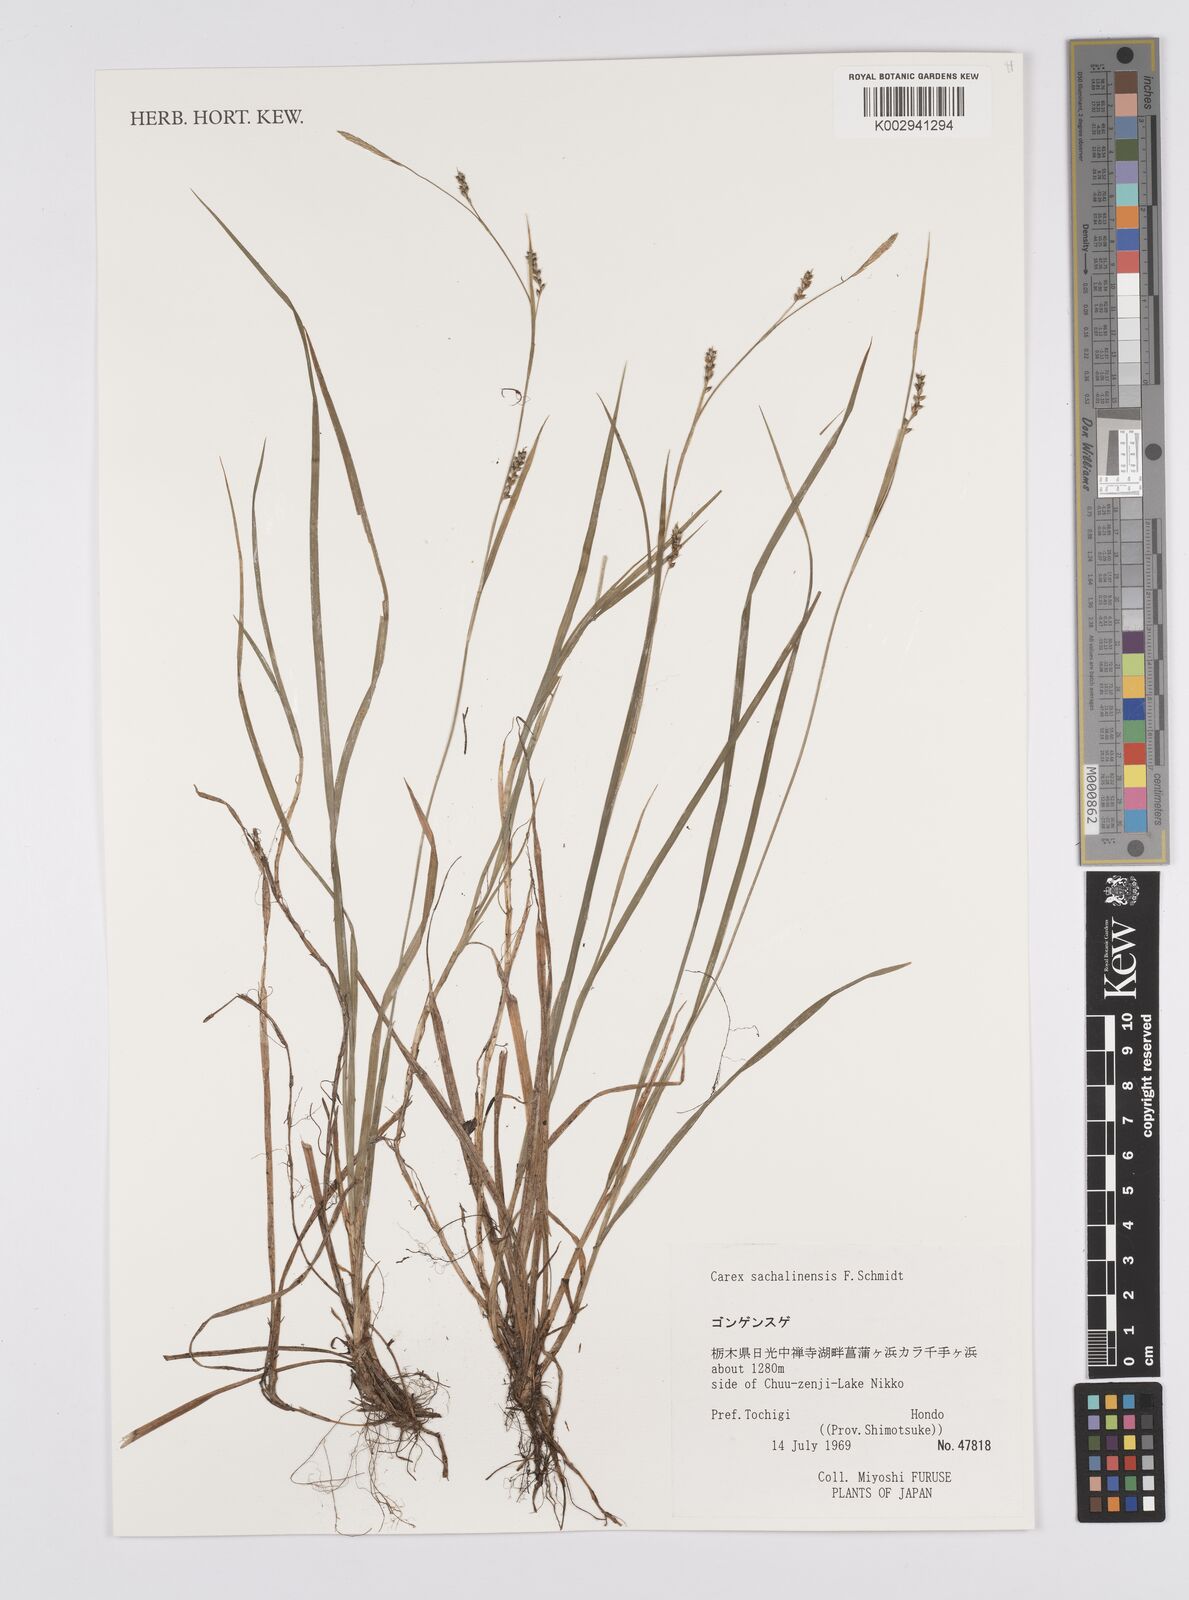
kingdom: Plantae
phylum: Tracheophyta
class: Liliopsida
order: Poales
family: Cyperaceae
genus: Carex
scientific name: Carex pisiformis
